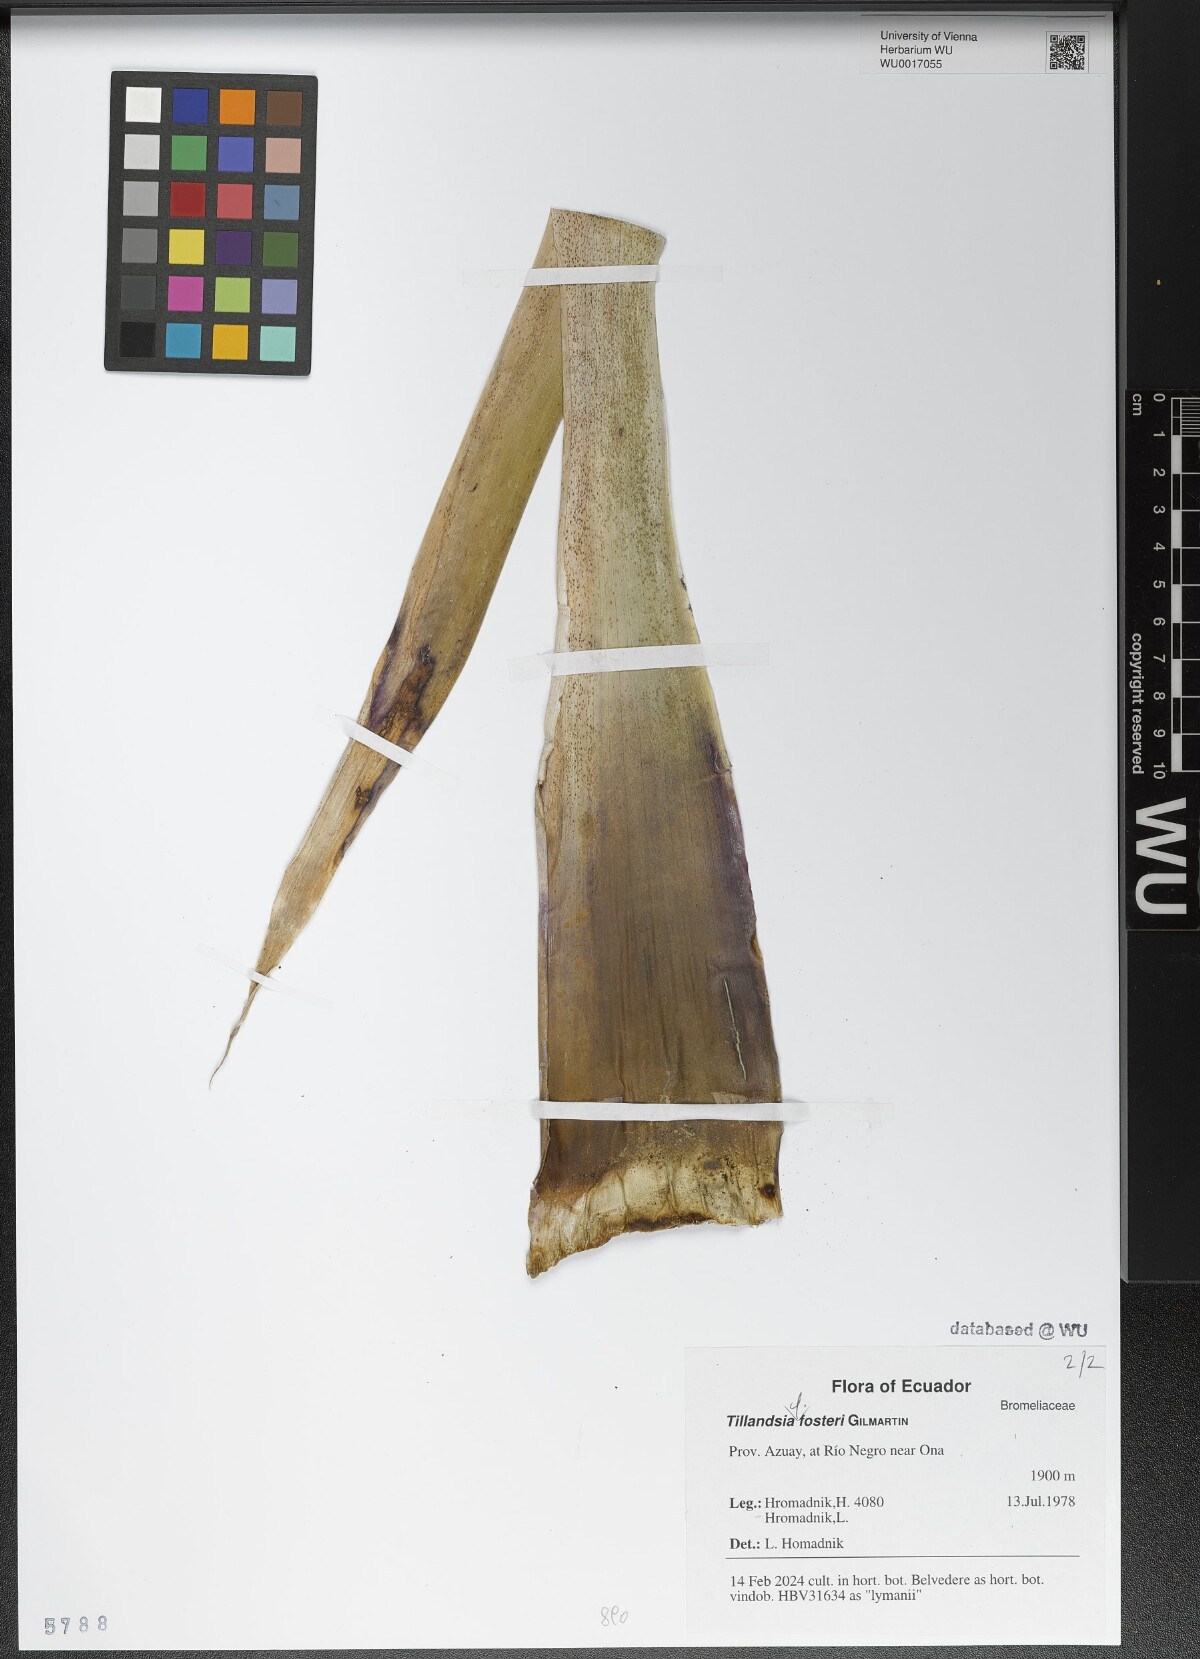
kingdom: Plantae
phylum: Tracheophyta
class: Liliopsida
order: Poales
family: Bromeliaceae
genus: Tillandsia
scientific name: Tillandsia demissa
